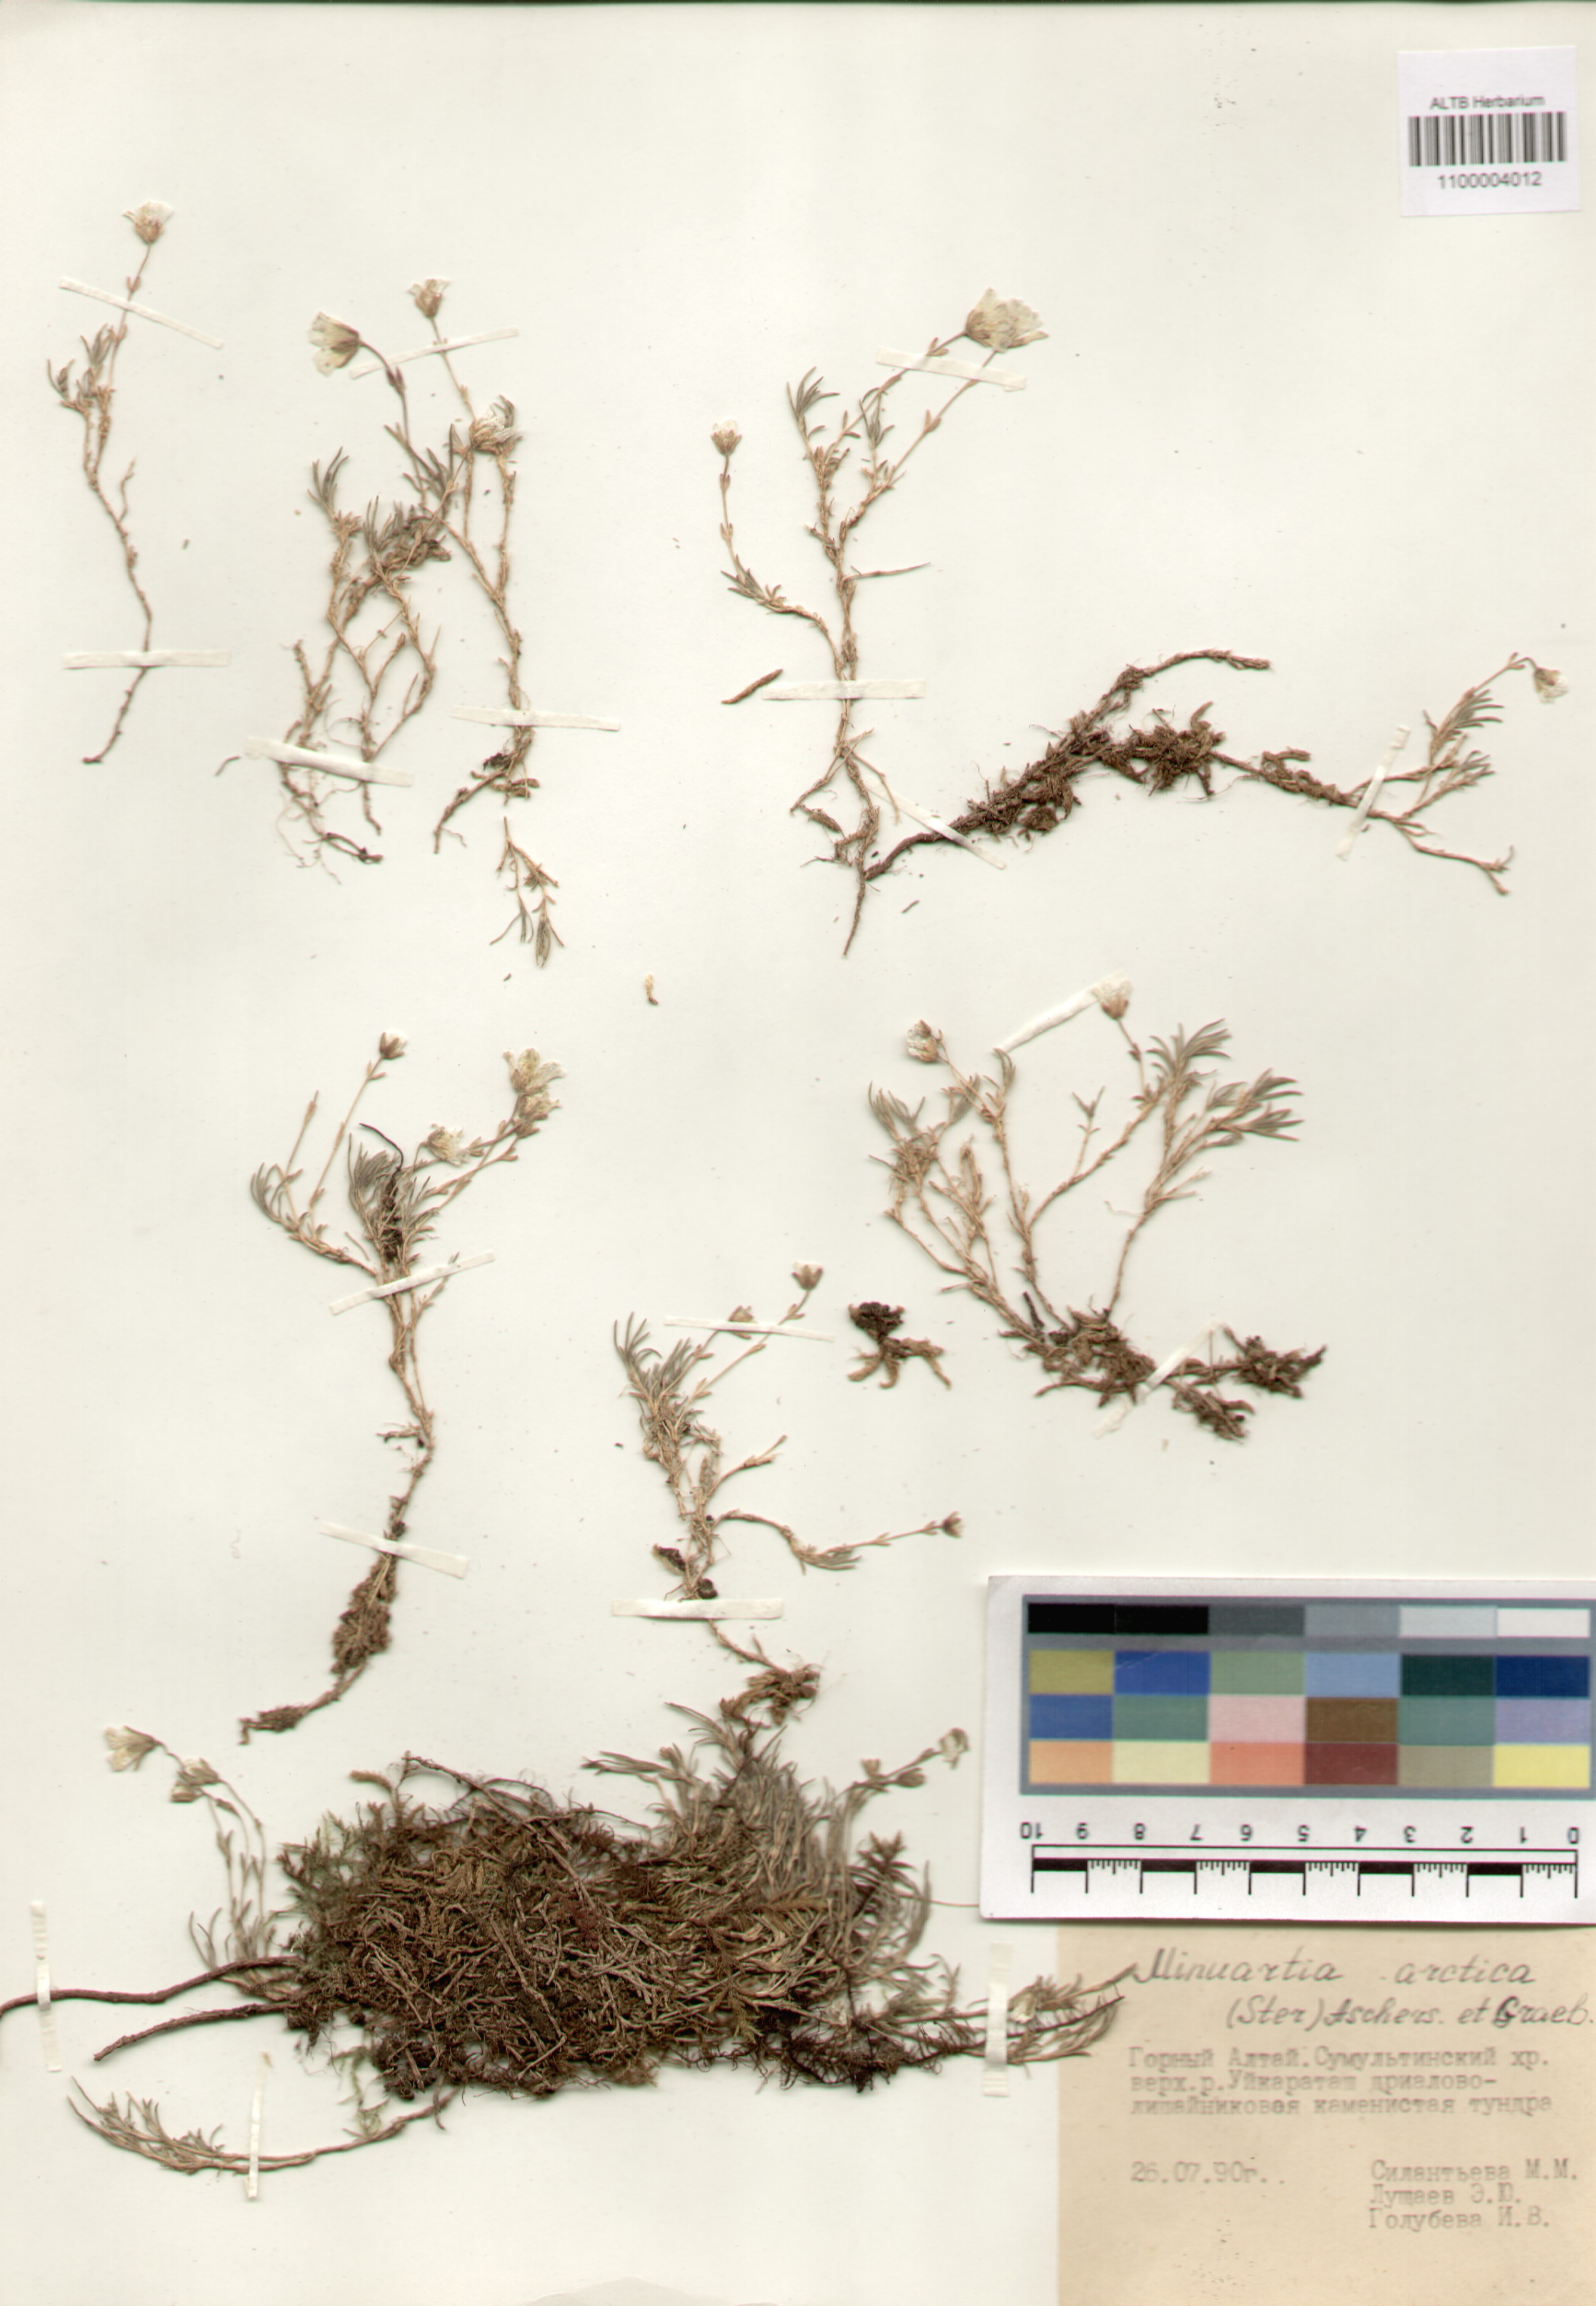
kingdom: Plantae
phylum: Tracheophyta
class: Magnoliopsida
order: Caryophyllales
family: Caryophyllaceae
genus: Cherleria
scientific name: Cherleria arctica
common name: Arctic sandwort
